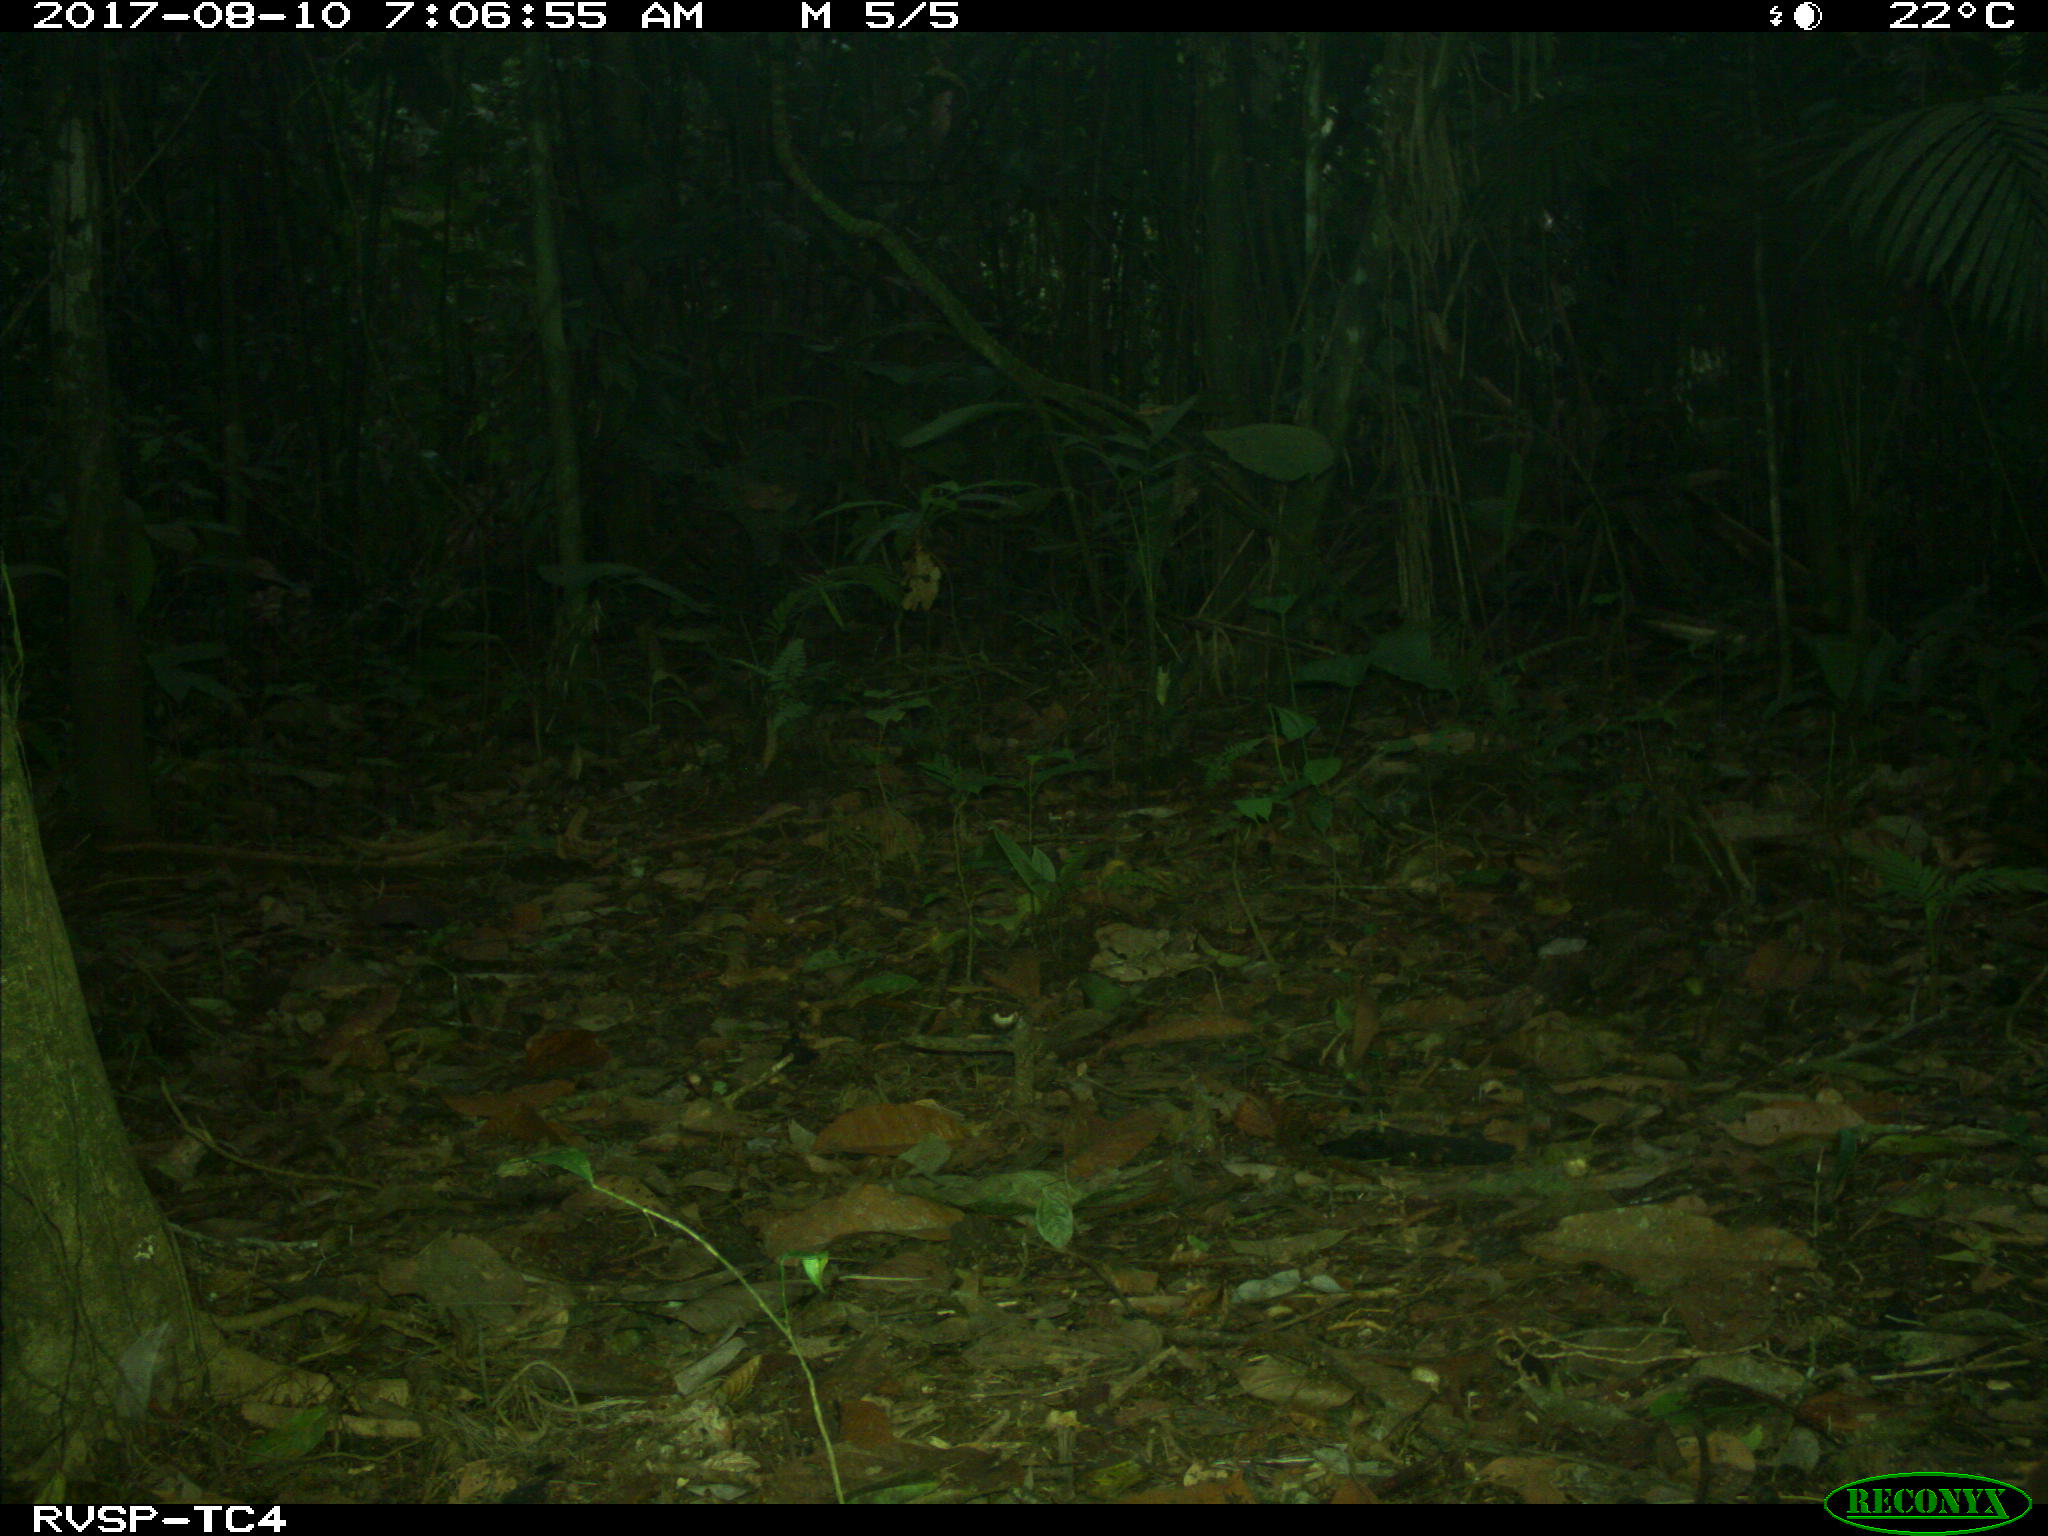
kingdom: Animalia
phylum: Chordata
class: Mammalia
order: Rodentia
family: Dasyproctidae
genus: Dasyprocta
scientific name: Dasyprocta punctata
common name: Central american agouti
